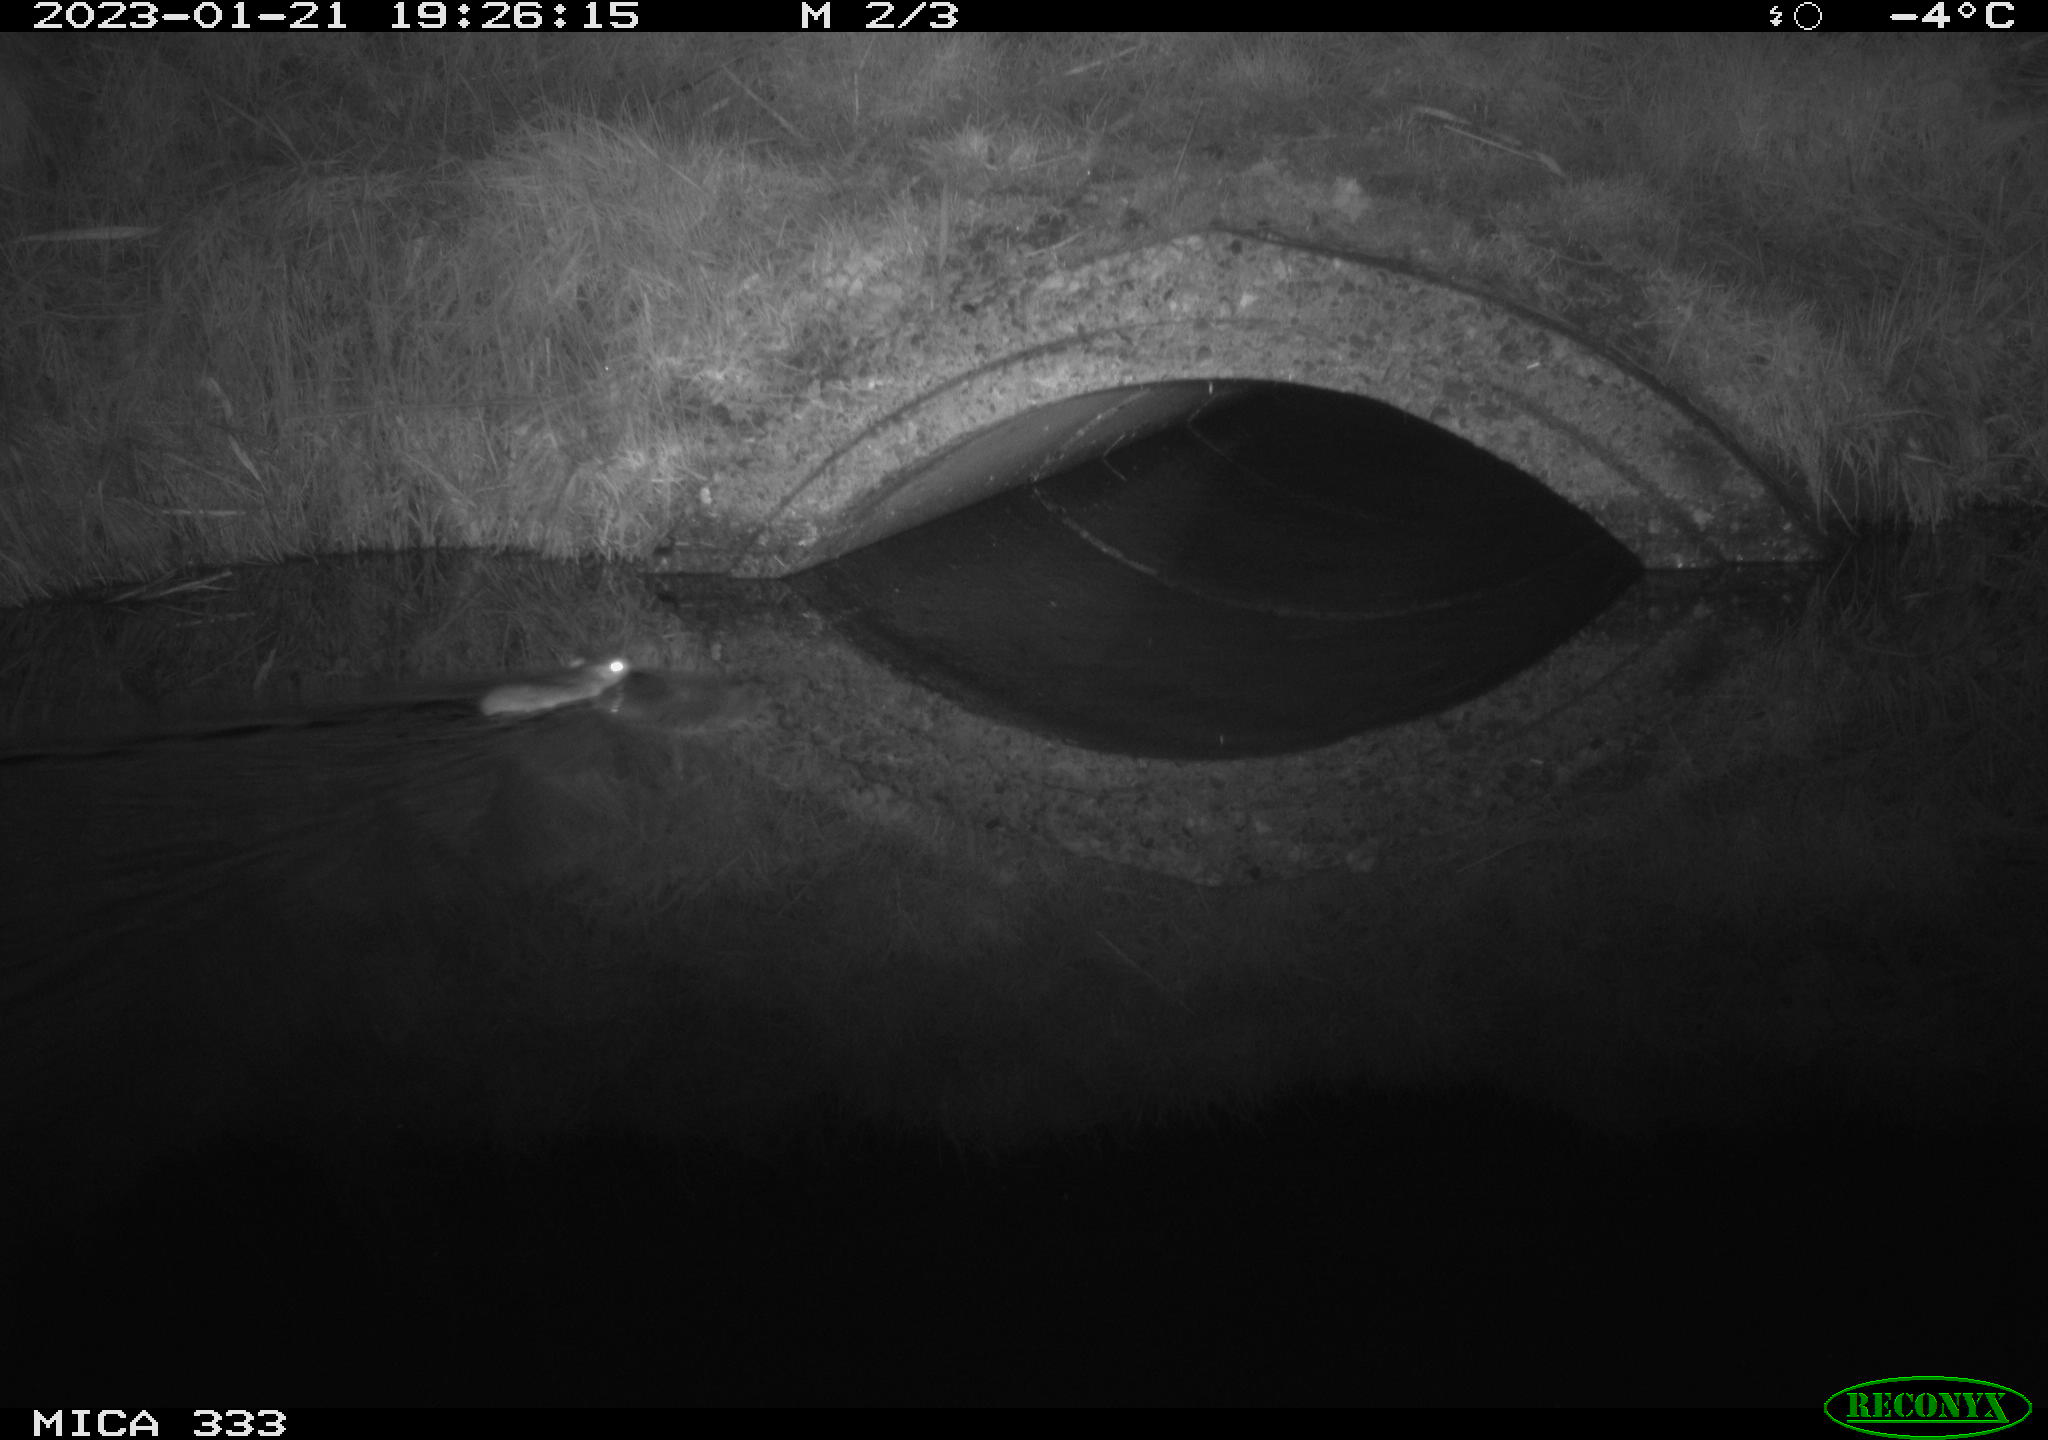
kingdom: Animalia
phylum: Chordata
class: Mammalia
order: Rodentia
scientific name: Rodentia
